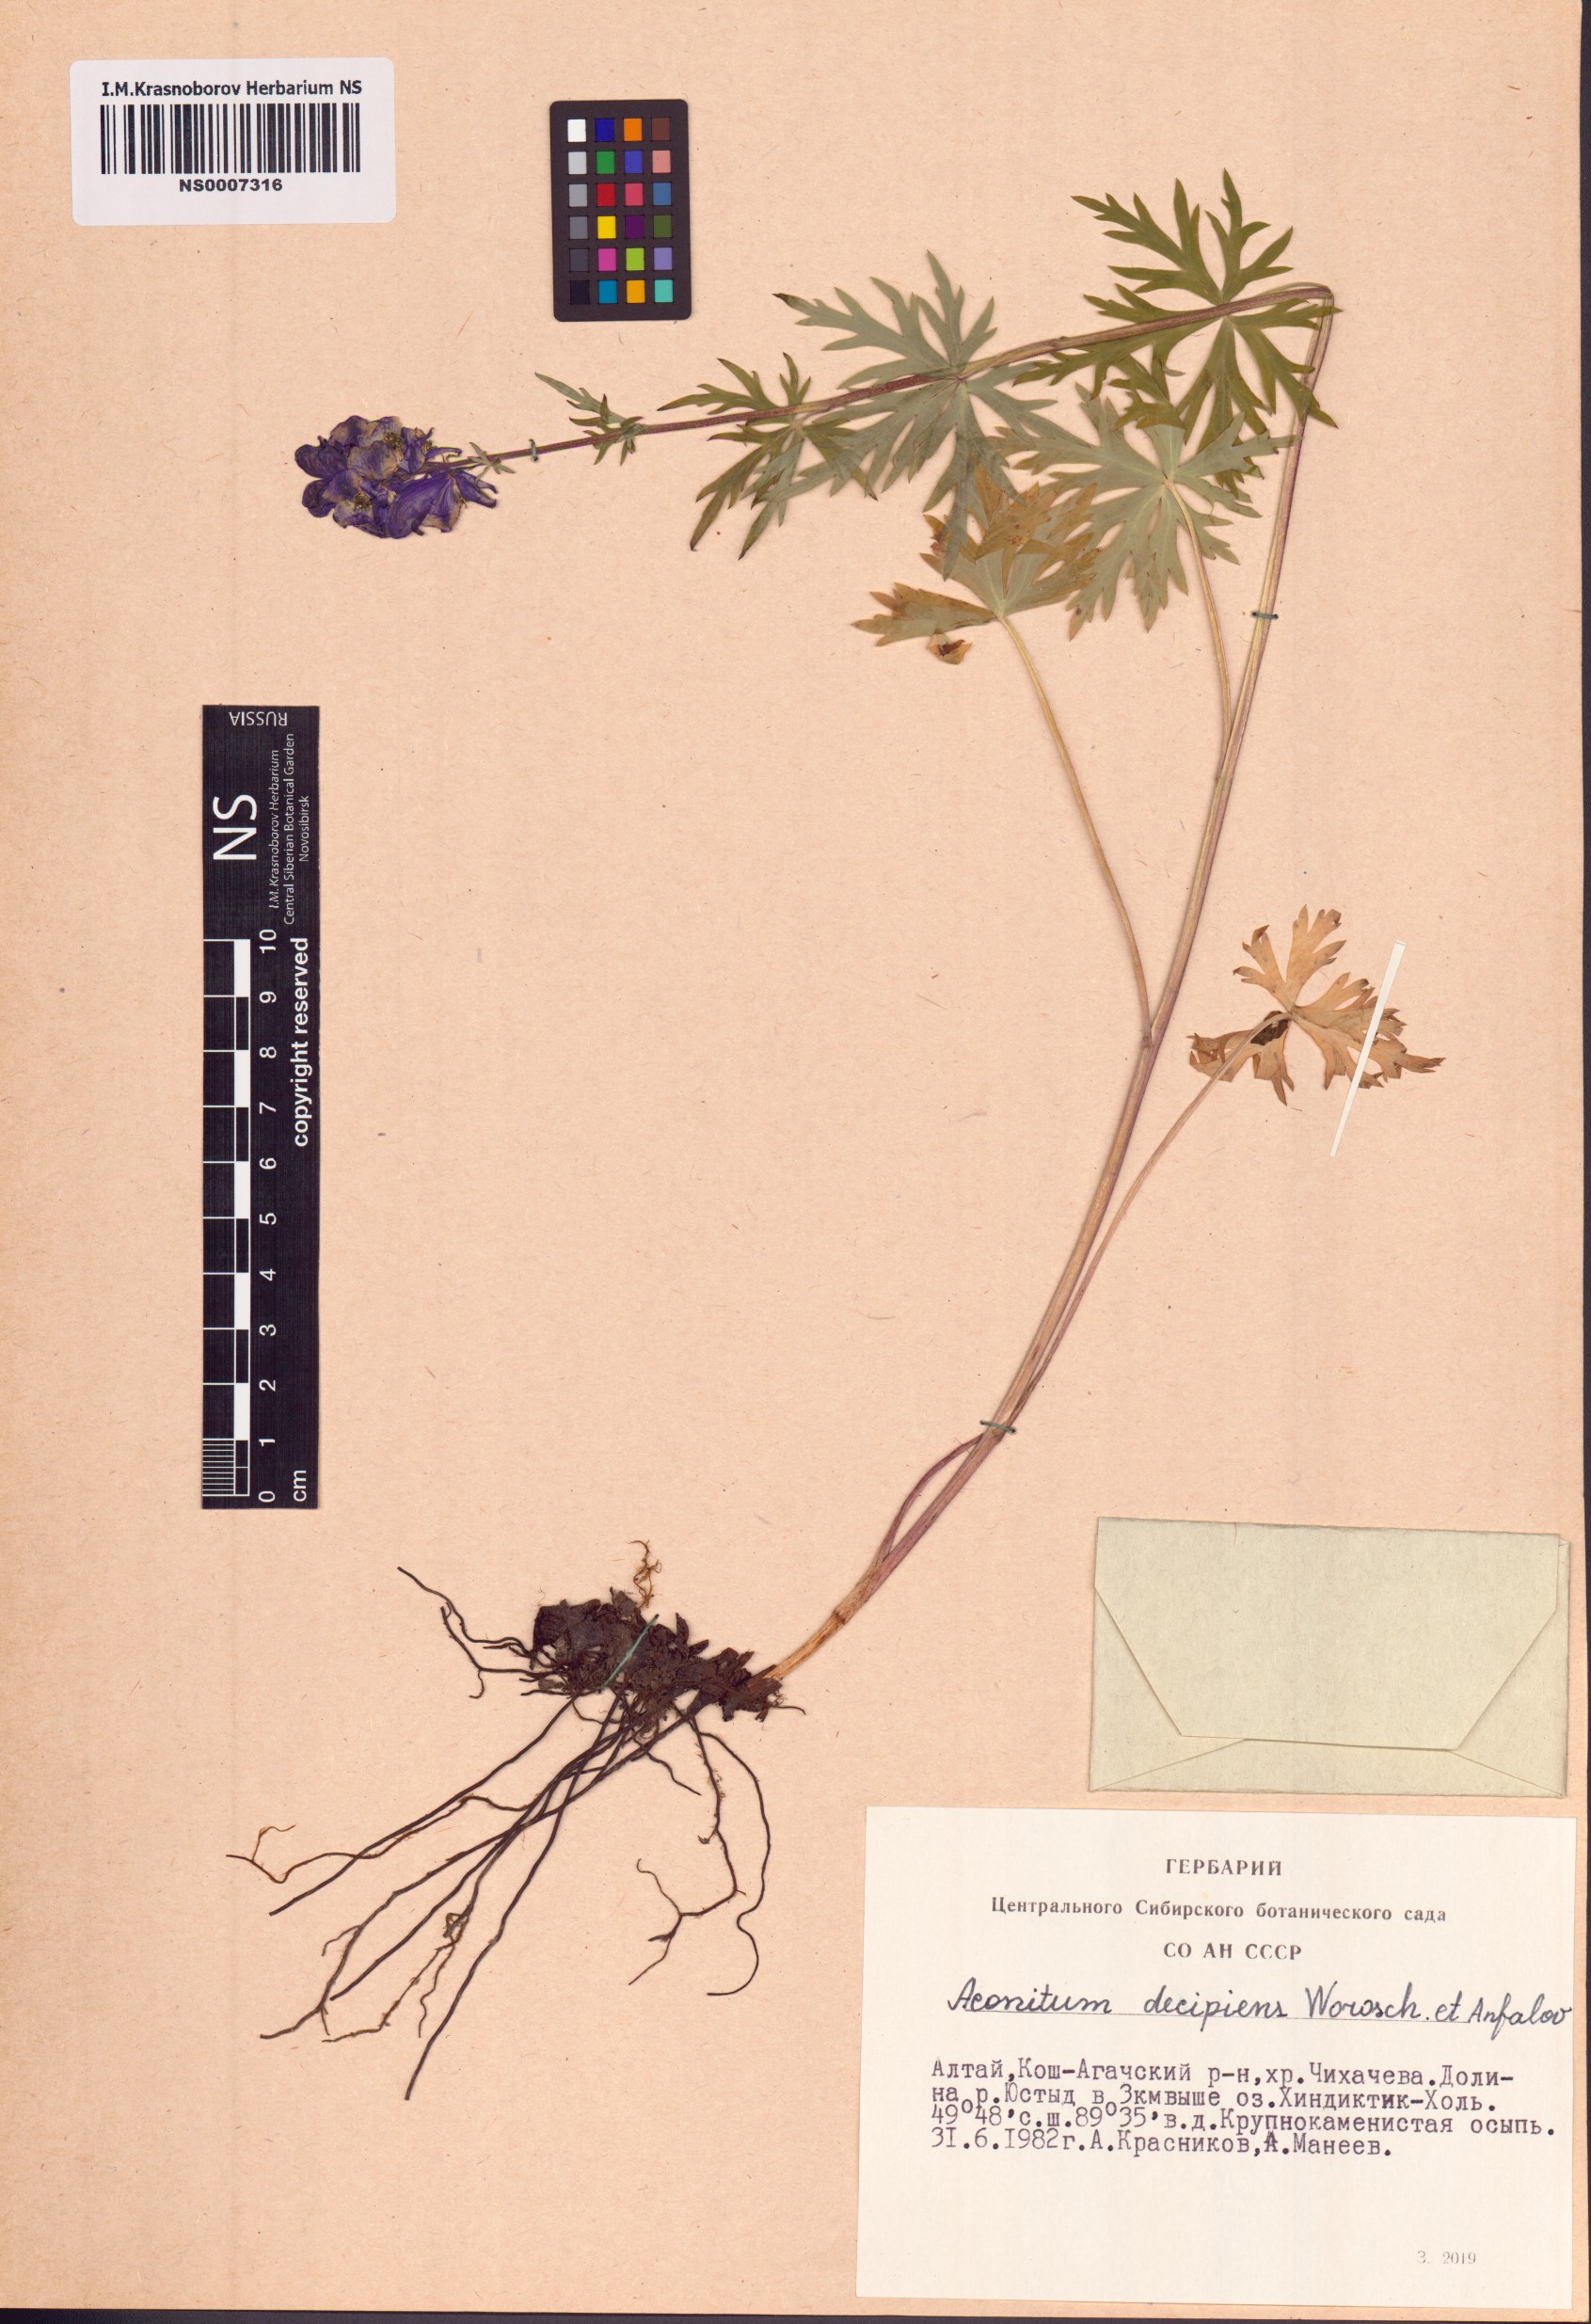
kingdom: Plantae
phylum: Tracheophyta
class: Magnoliopsida
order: Ranunculales
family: Ranunculaceae
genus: Aconitum
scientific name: Aconitum decipiens
